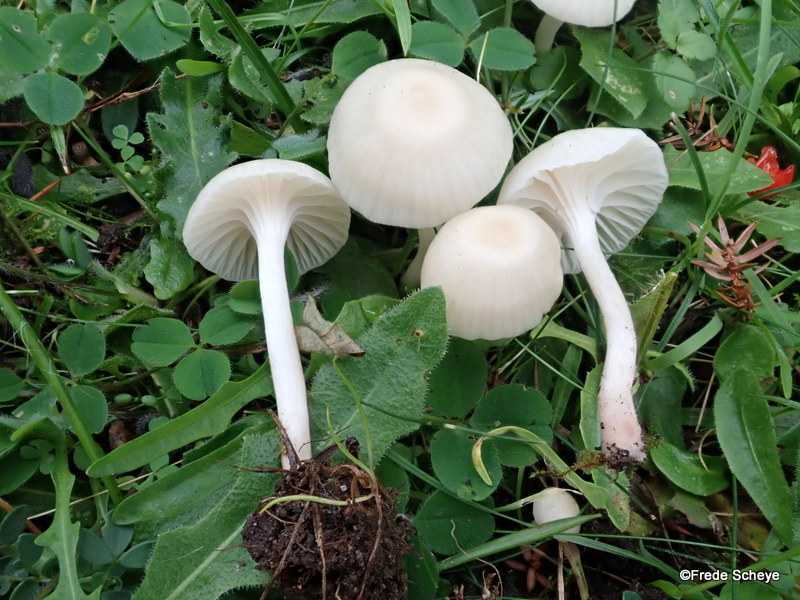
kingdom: Fungi
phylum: Basidiomycota
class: Agaricomycetes
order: Agaricales
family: Hygrophoraceae
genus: Cuphophyllus
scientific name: Cuphophyllus virgineus
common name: snehvid vokshat
